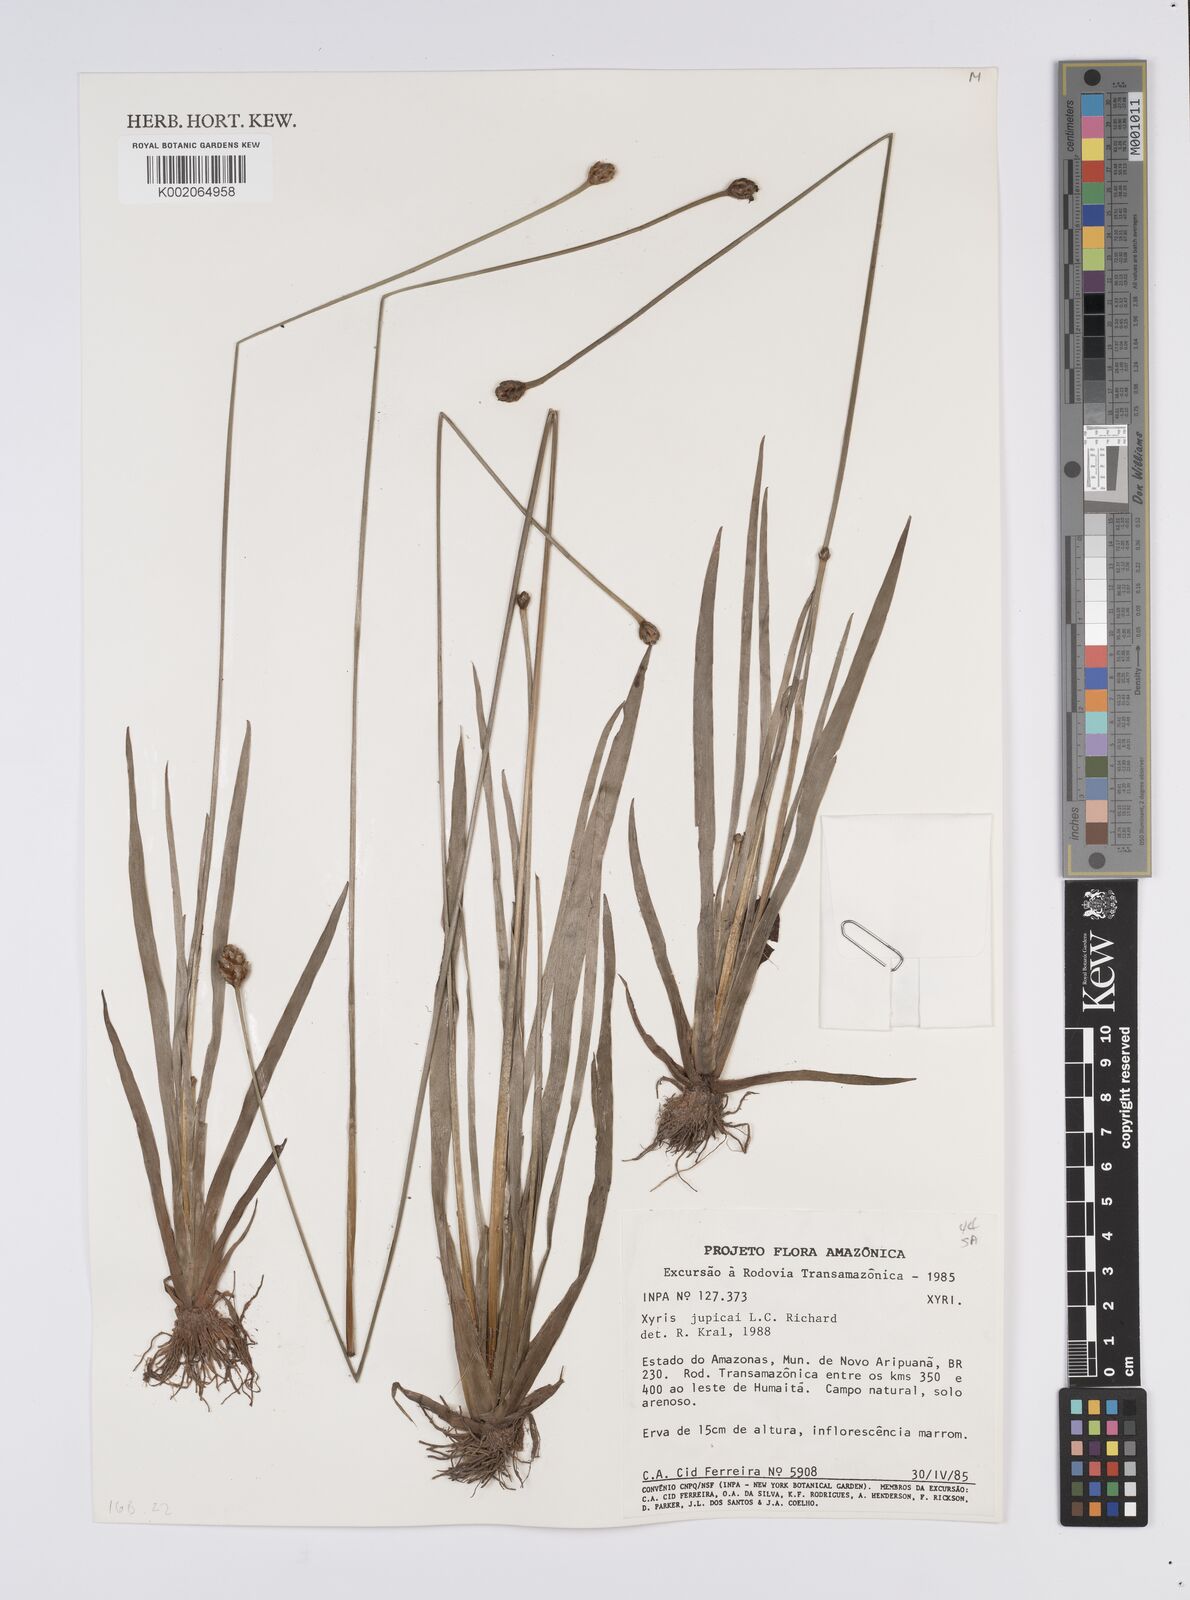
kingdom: Plantae
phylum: Tracheophyta
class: Liliopsida
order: Poales
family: Xyridaceae
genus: Xyris
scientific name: Xyris jupicai
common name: Richard's yelloweyed grass
